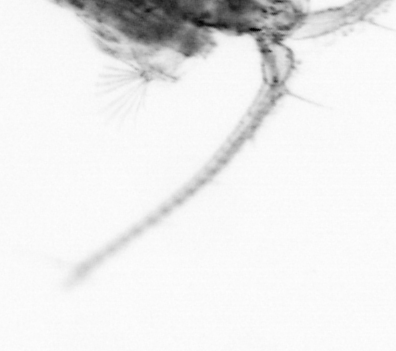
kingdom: Animalia
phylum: Arthropoda
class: Copepoda
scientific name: Copepoda
